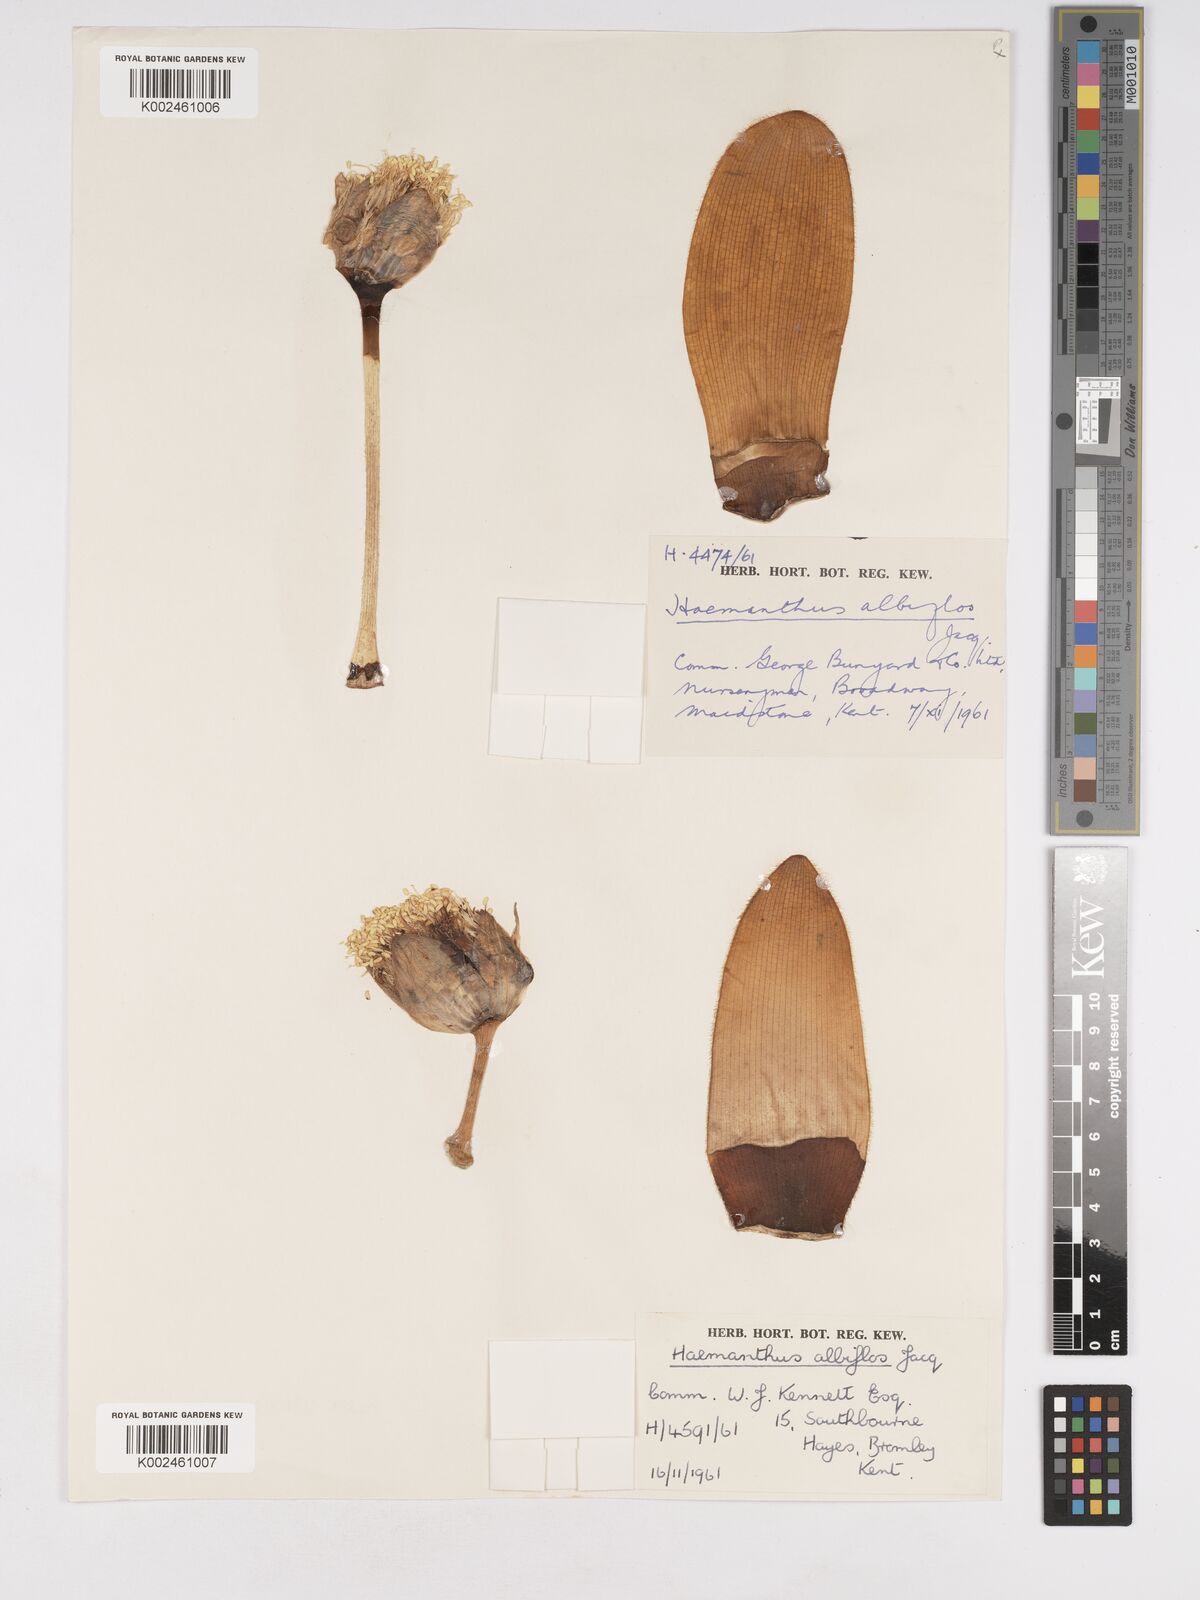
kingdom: Plantae
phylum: Tracheophyta
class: Liliopsida
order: Asparagales
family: Amaryllidaceae
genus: Haemanthus
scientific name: Haemanthus albiflos
